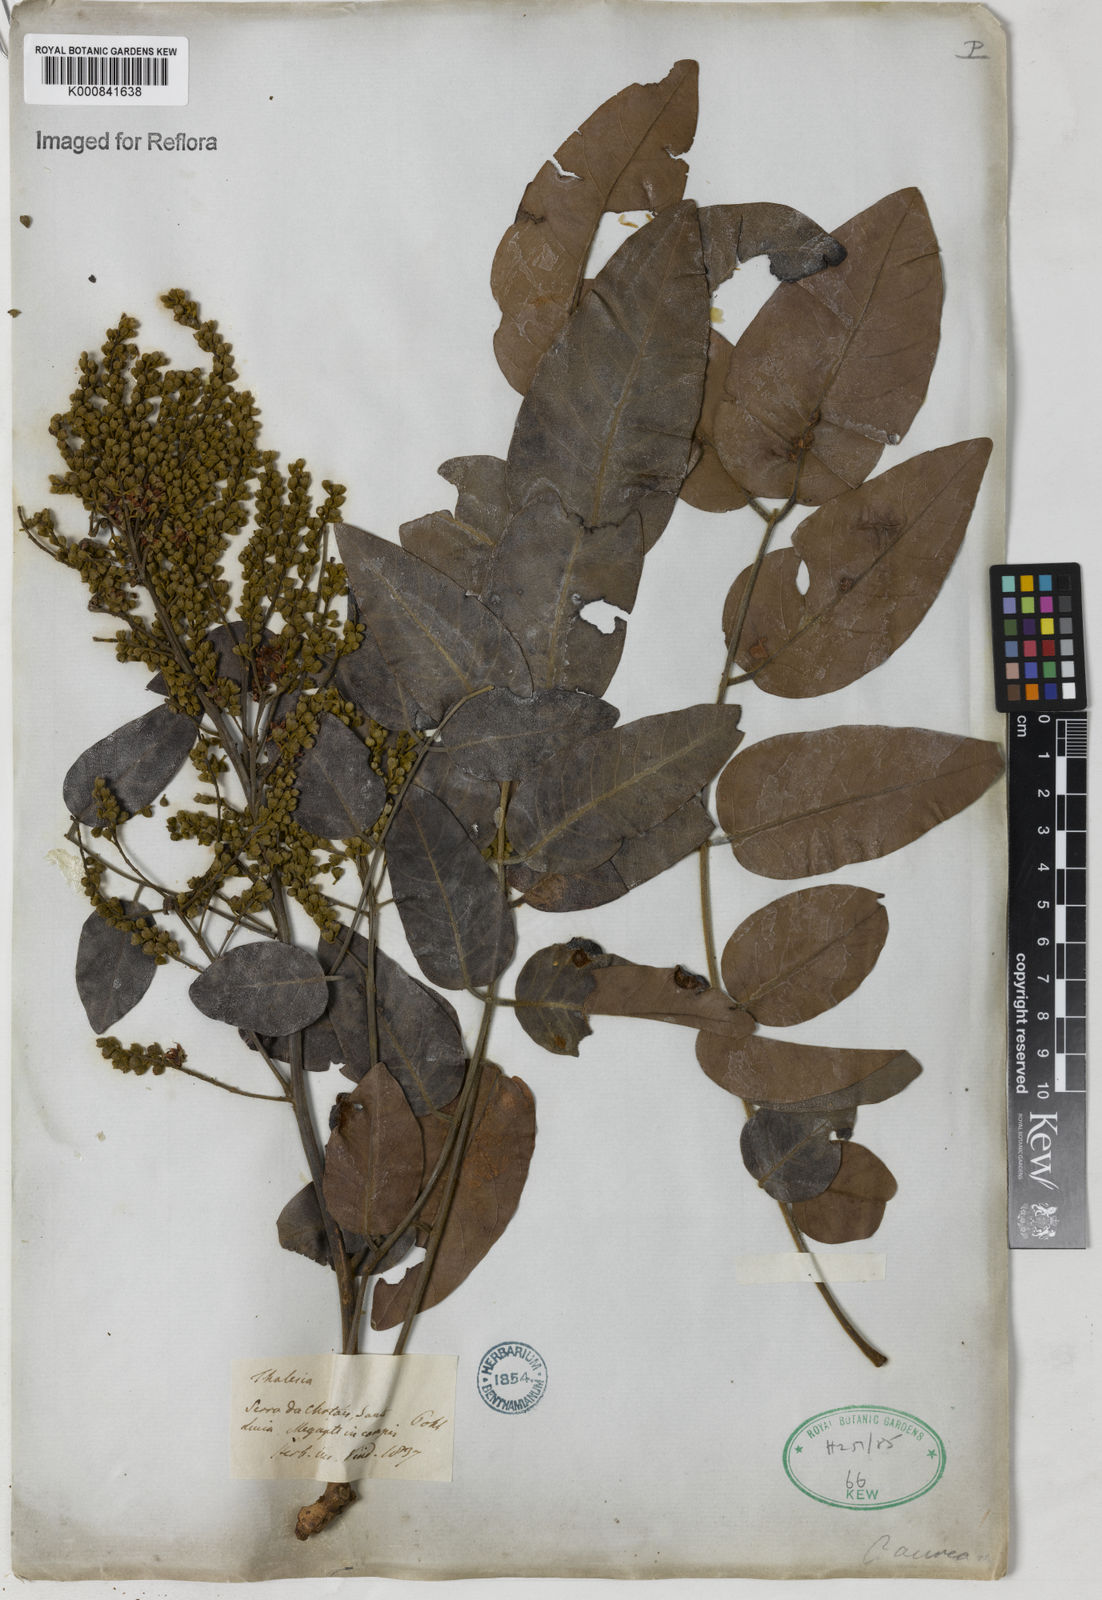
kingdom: Plantae
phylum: Tracheophyta
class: Magnoliopsida
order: Fabales
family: Fabaceae
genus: Tachigali
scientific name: Tachigali aurea
